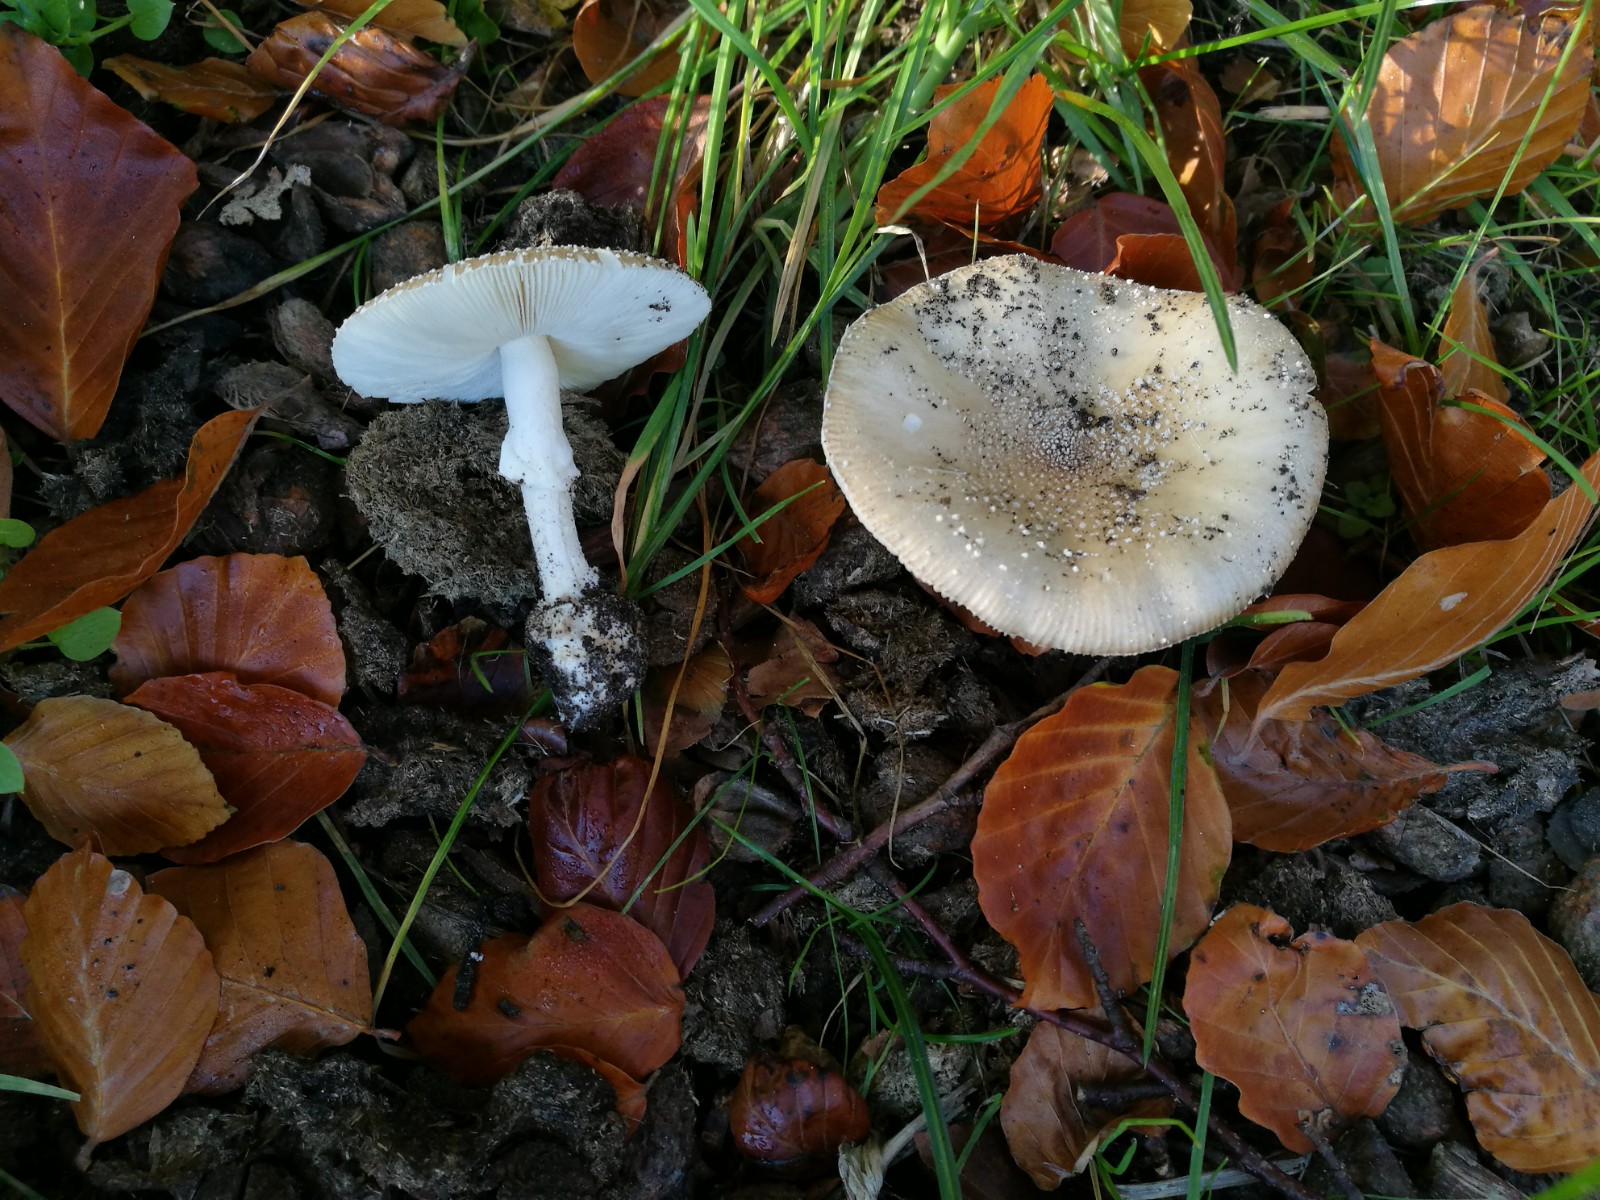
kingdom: Fungi
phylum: Basidiomycota
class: Agaricomycetes
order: Agaricales
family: Amanitaceae
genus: Amanita
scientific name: Amanita pantherina
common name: panter-fluesvamp
